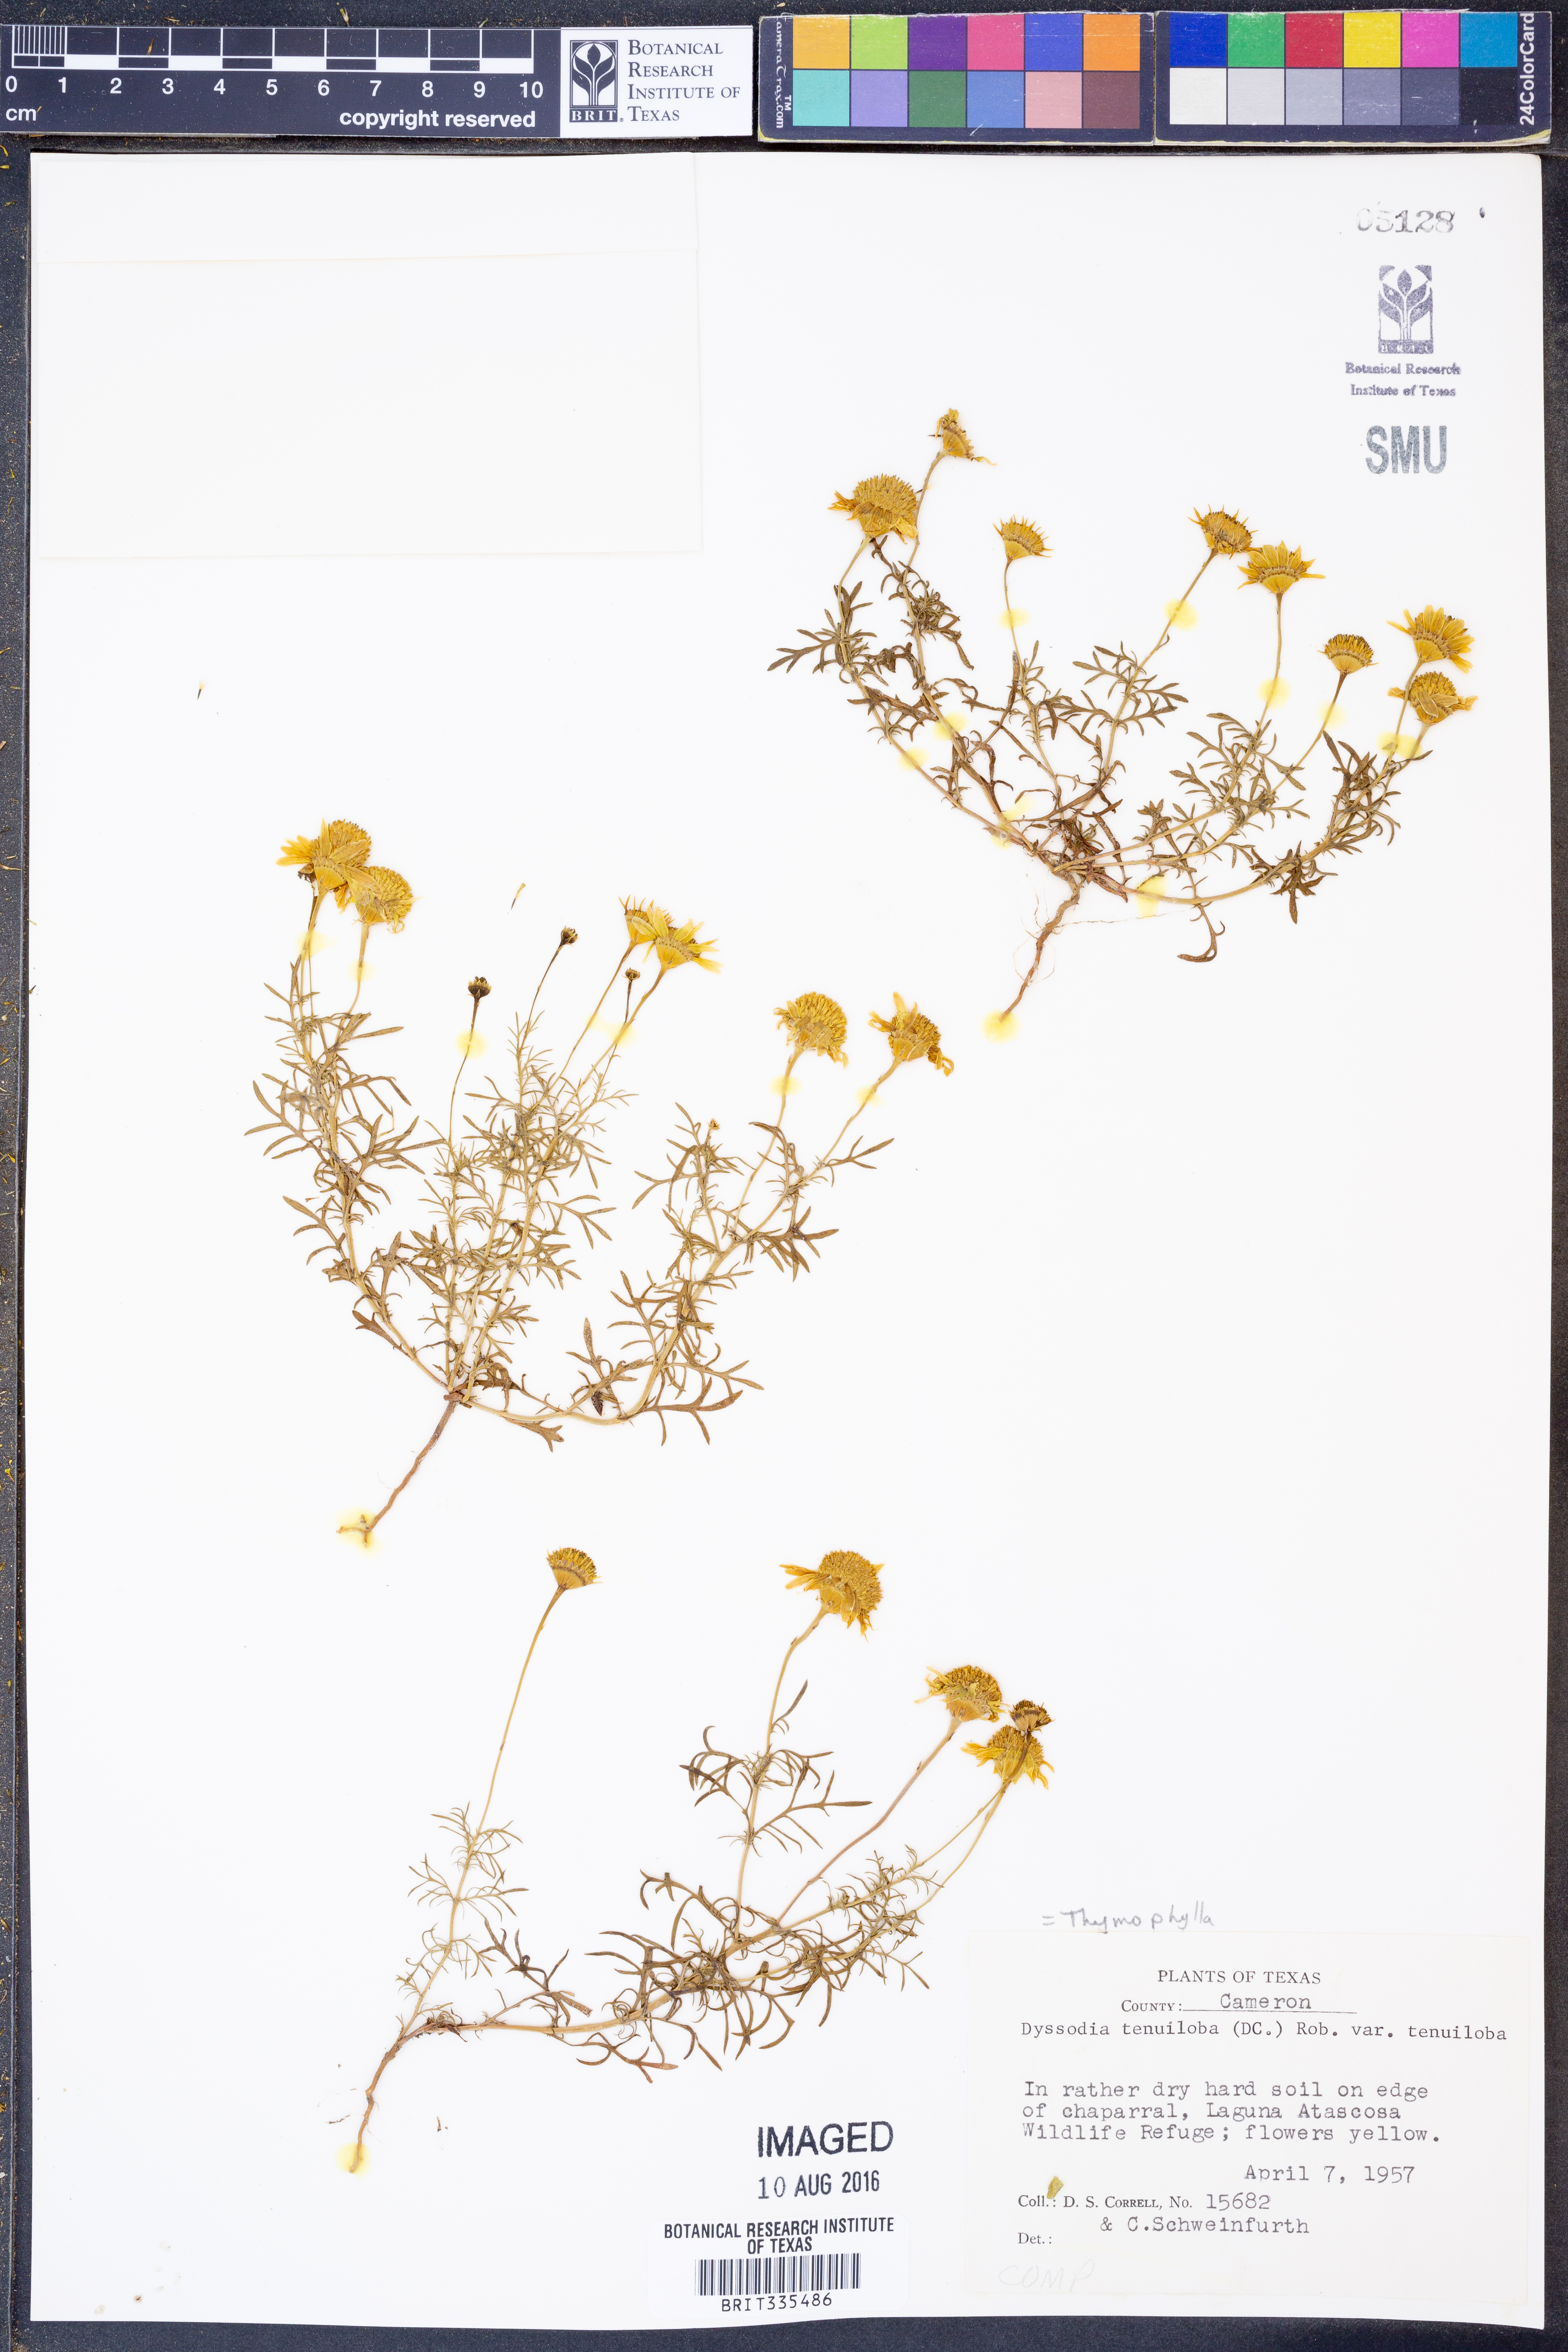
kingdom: Plantae
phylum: Tracheophyta
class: Magnoliopsida
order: Asterales
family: Asteraceae
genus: Thymophylla
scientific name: Thymophylla tenuiloba
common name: Dahlberg's daisy
